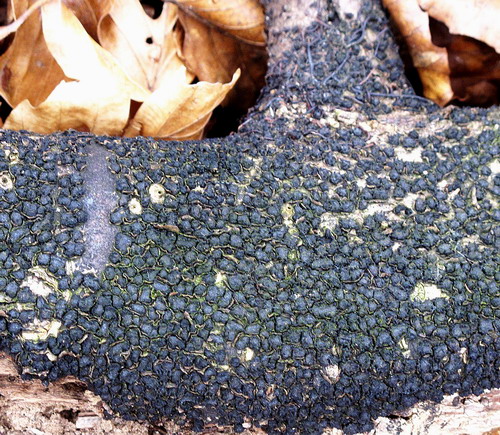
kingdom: Fungi
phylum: Ascomycota
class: Sordariomycetes
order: Xylariales
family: Melogrammataceae
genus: Melogramma
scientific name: Melogramma spiniferum
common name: bøgefod-kulhals
